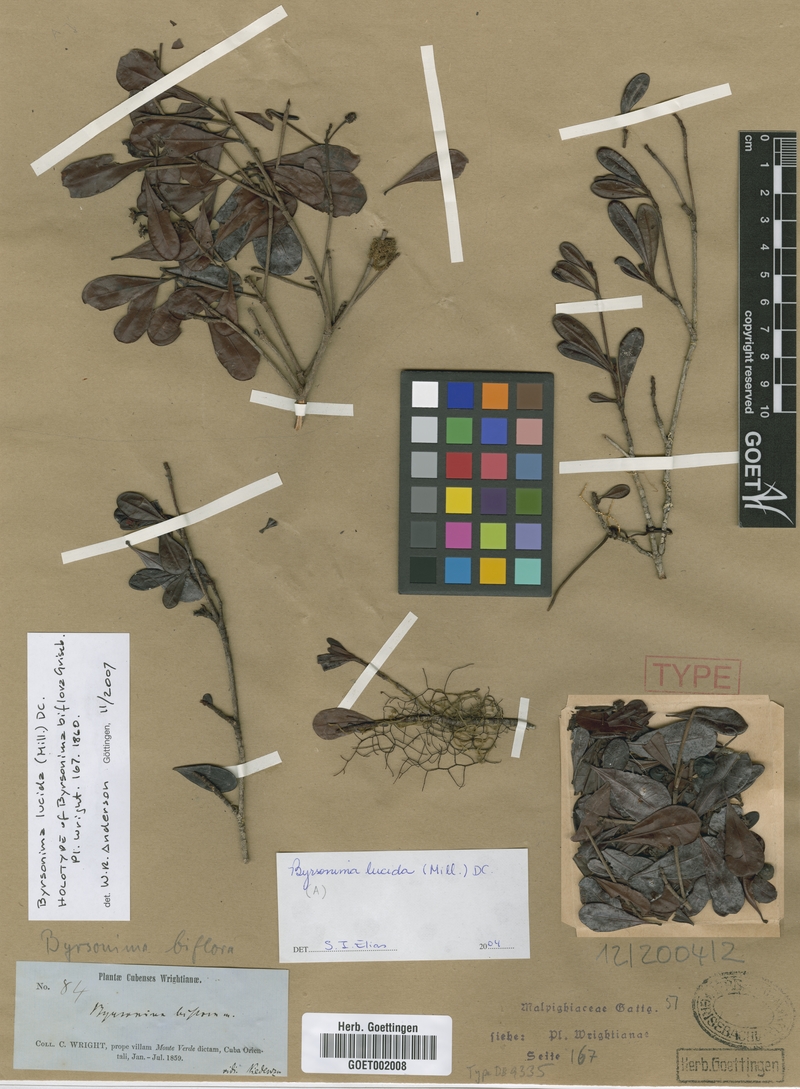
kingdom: Plantae
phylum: Tracheophyta
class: Magnoliopsida
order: Malpighiales
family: Malpighiaceae
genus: Byrsonima
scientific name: Byrsonima lucida
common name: Clam-cherry
